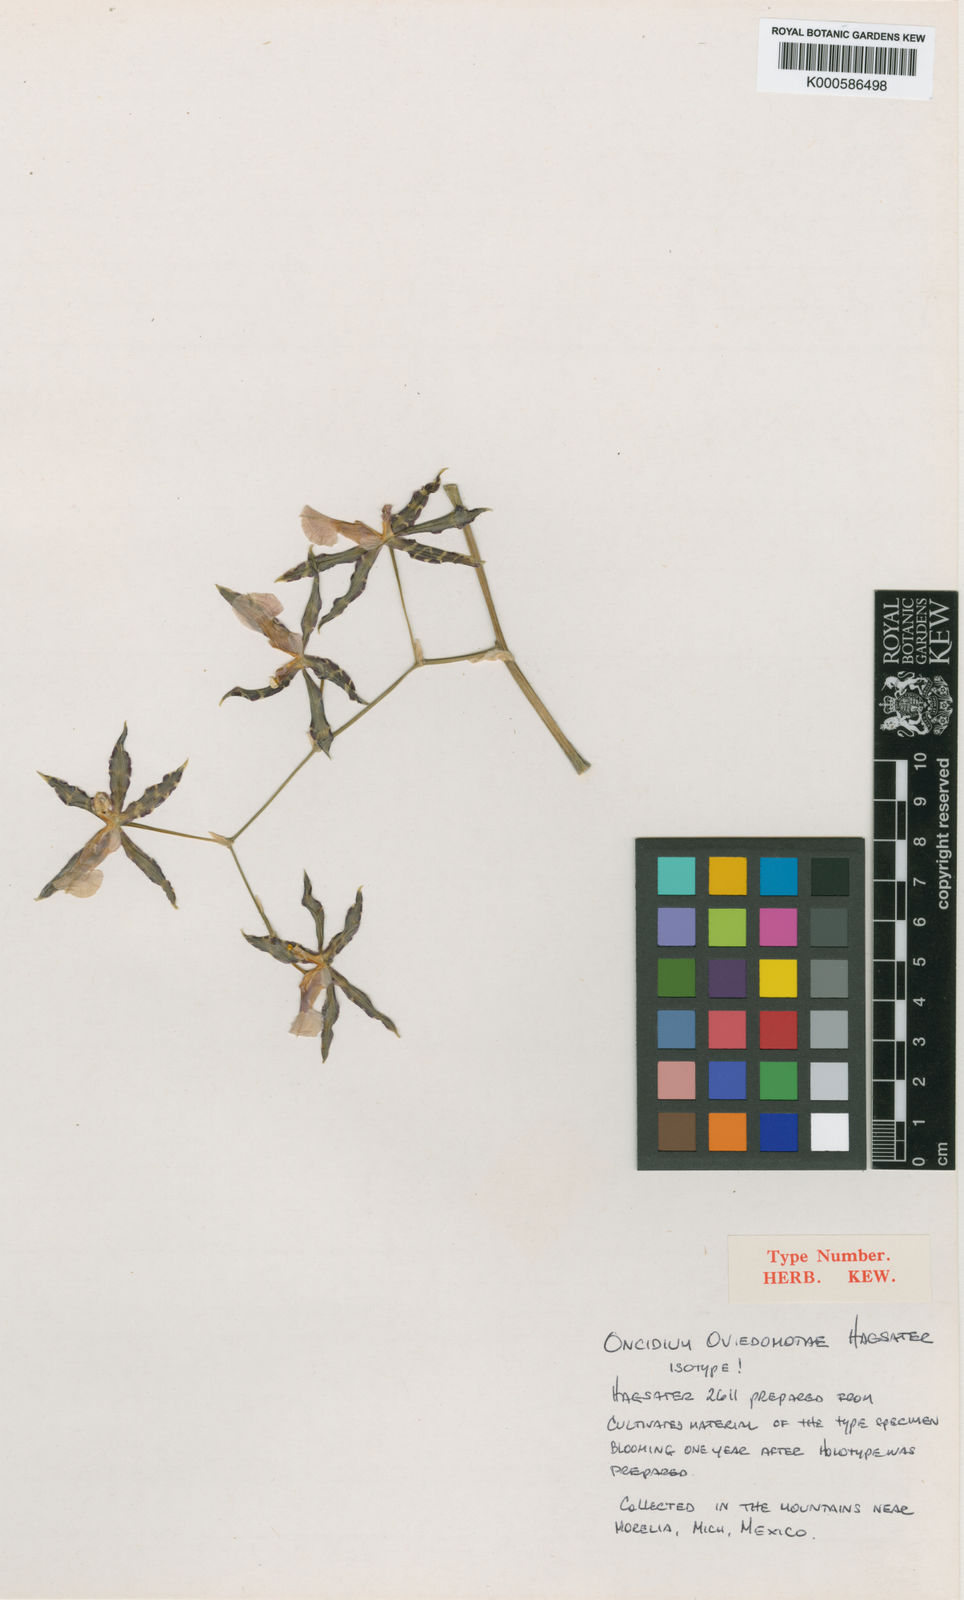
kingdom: Plantae
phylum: Tracheophyta
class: Liliopsida
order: Asparagales
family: Orchidaceae
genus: Oncidium
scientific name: Oncidium
